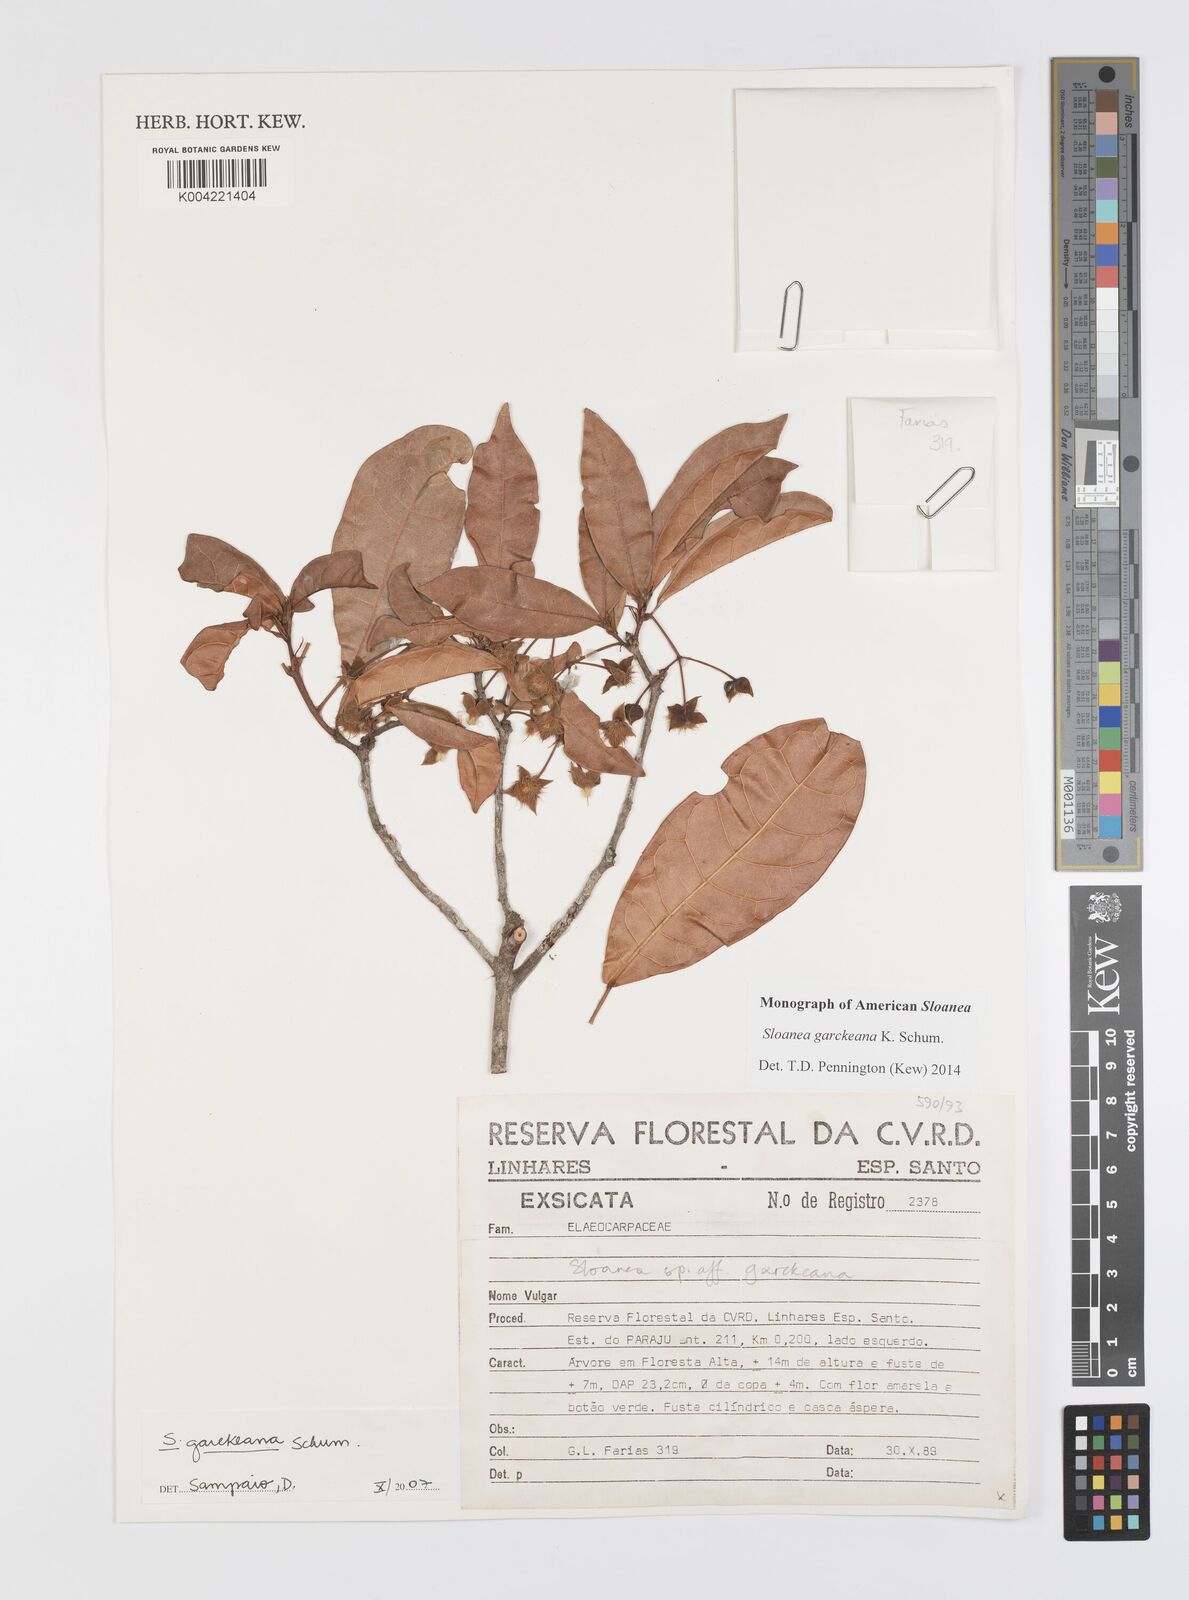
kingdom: Plantae
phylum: Tracheophyta
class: Magnoliopsida
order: Oxalidales
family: Elaeocarpaceae
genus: Sloanea
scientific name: Sloanea garckeana
